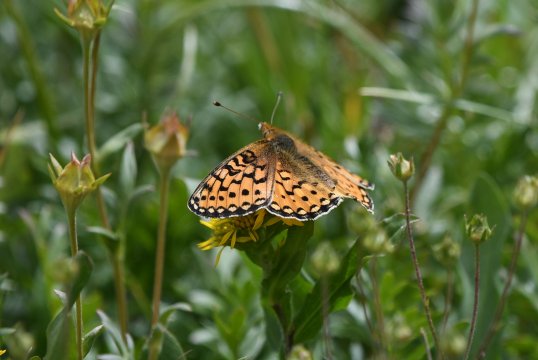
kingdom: Animalia
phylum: Arthropoda
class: Insecta
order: Lepidoptera
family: Nymphalidae
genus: Speyeria
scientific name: Speyeria mormonia
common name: Mormon Fritillary
